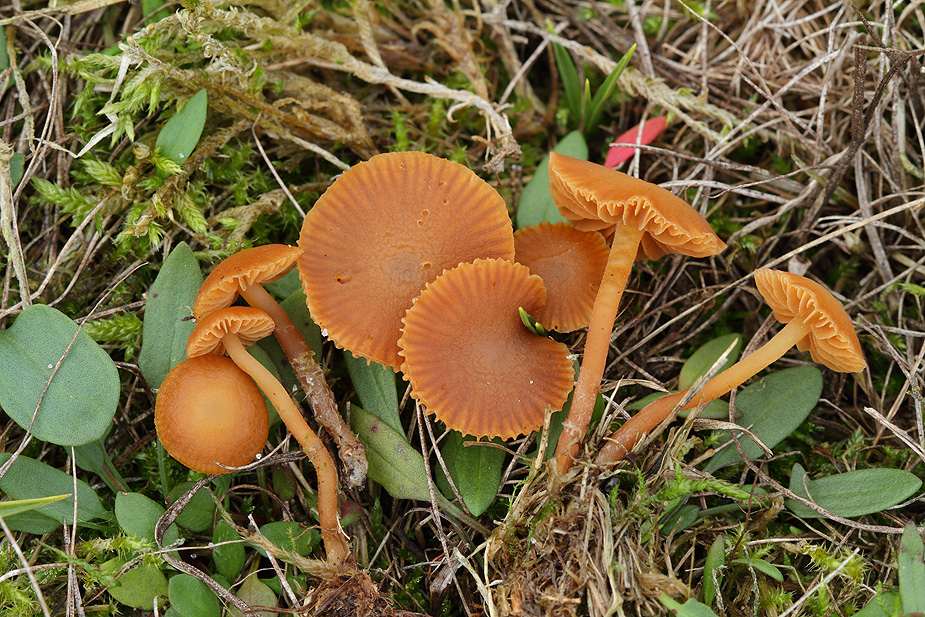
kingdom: Fungi
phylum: Basidiomycota
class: Agaricomycetes
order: Agaricales
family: Hymenogastraceae
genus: Galerina
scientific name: Galerina vittiformis
